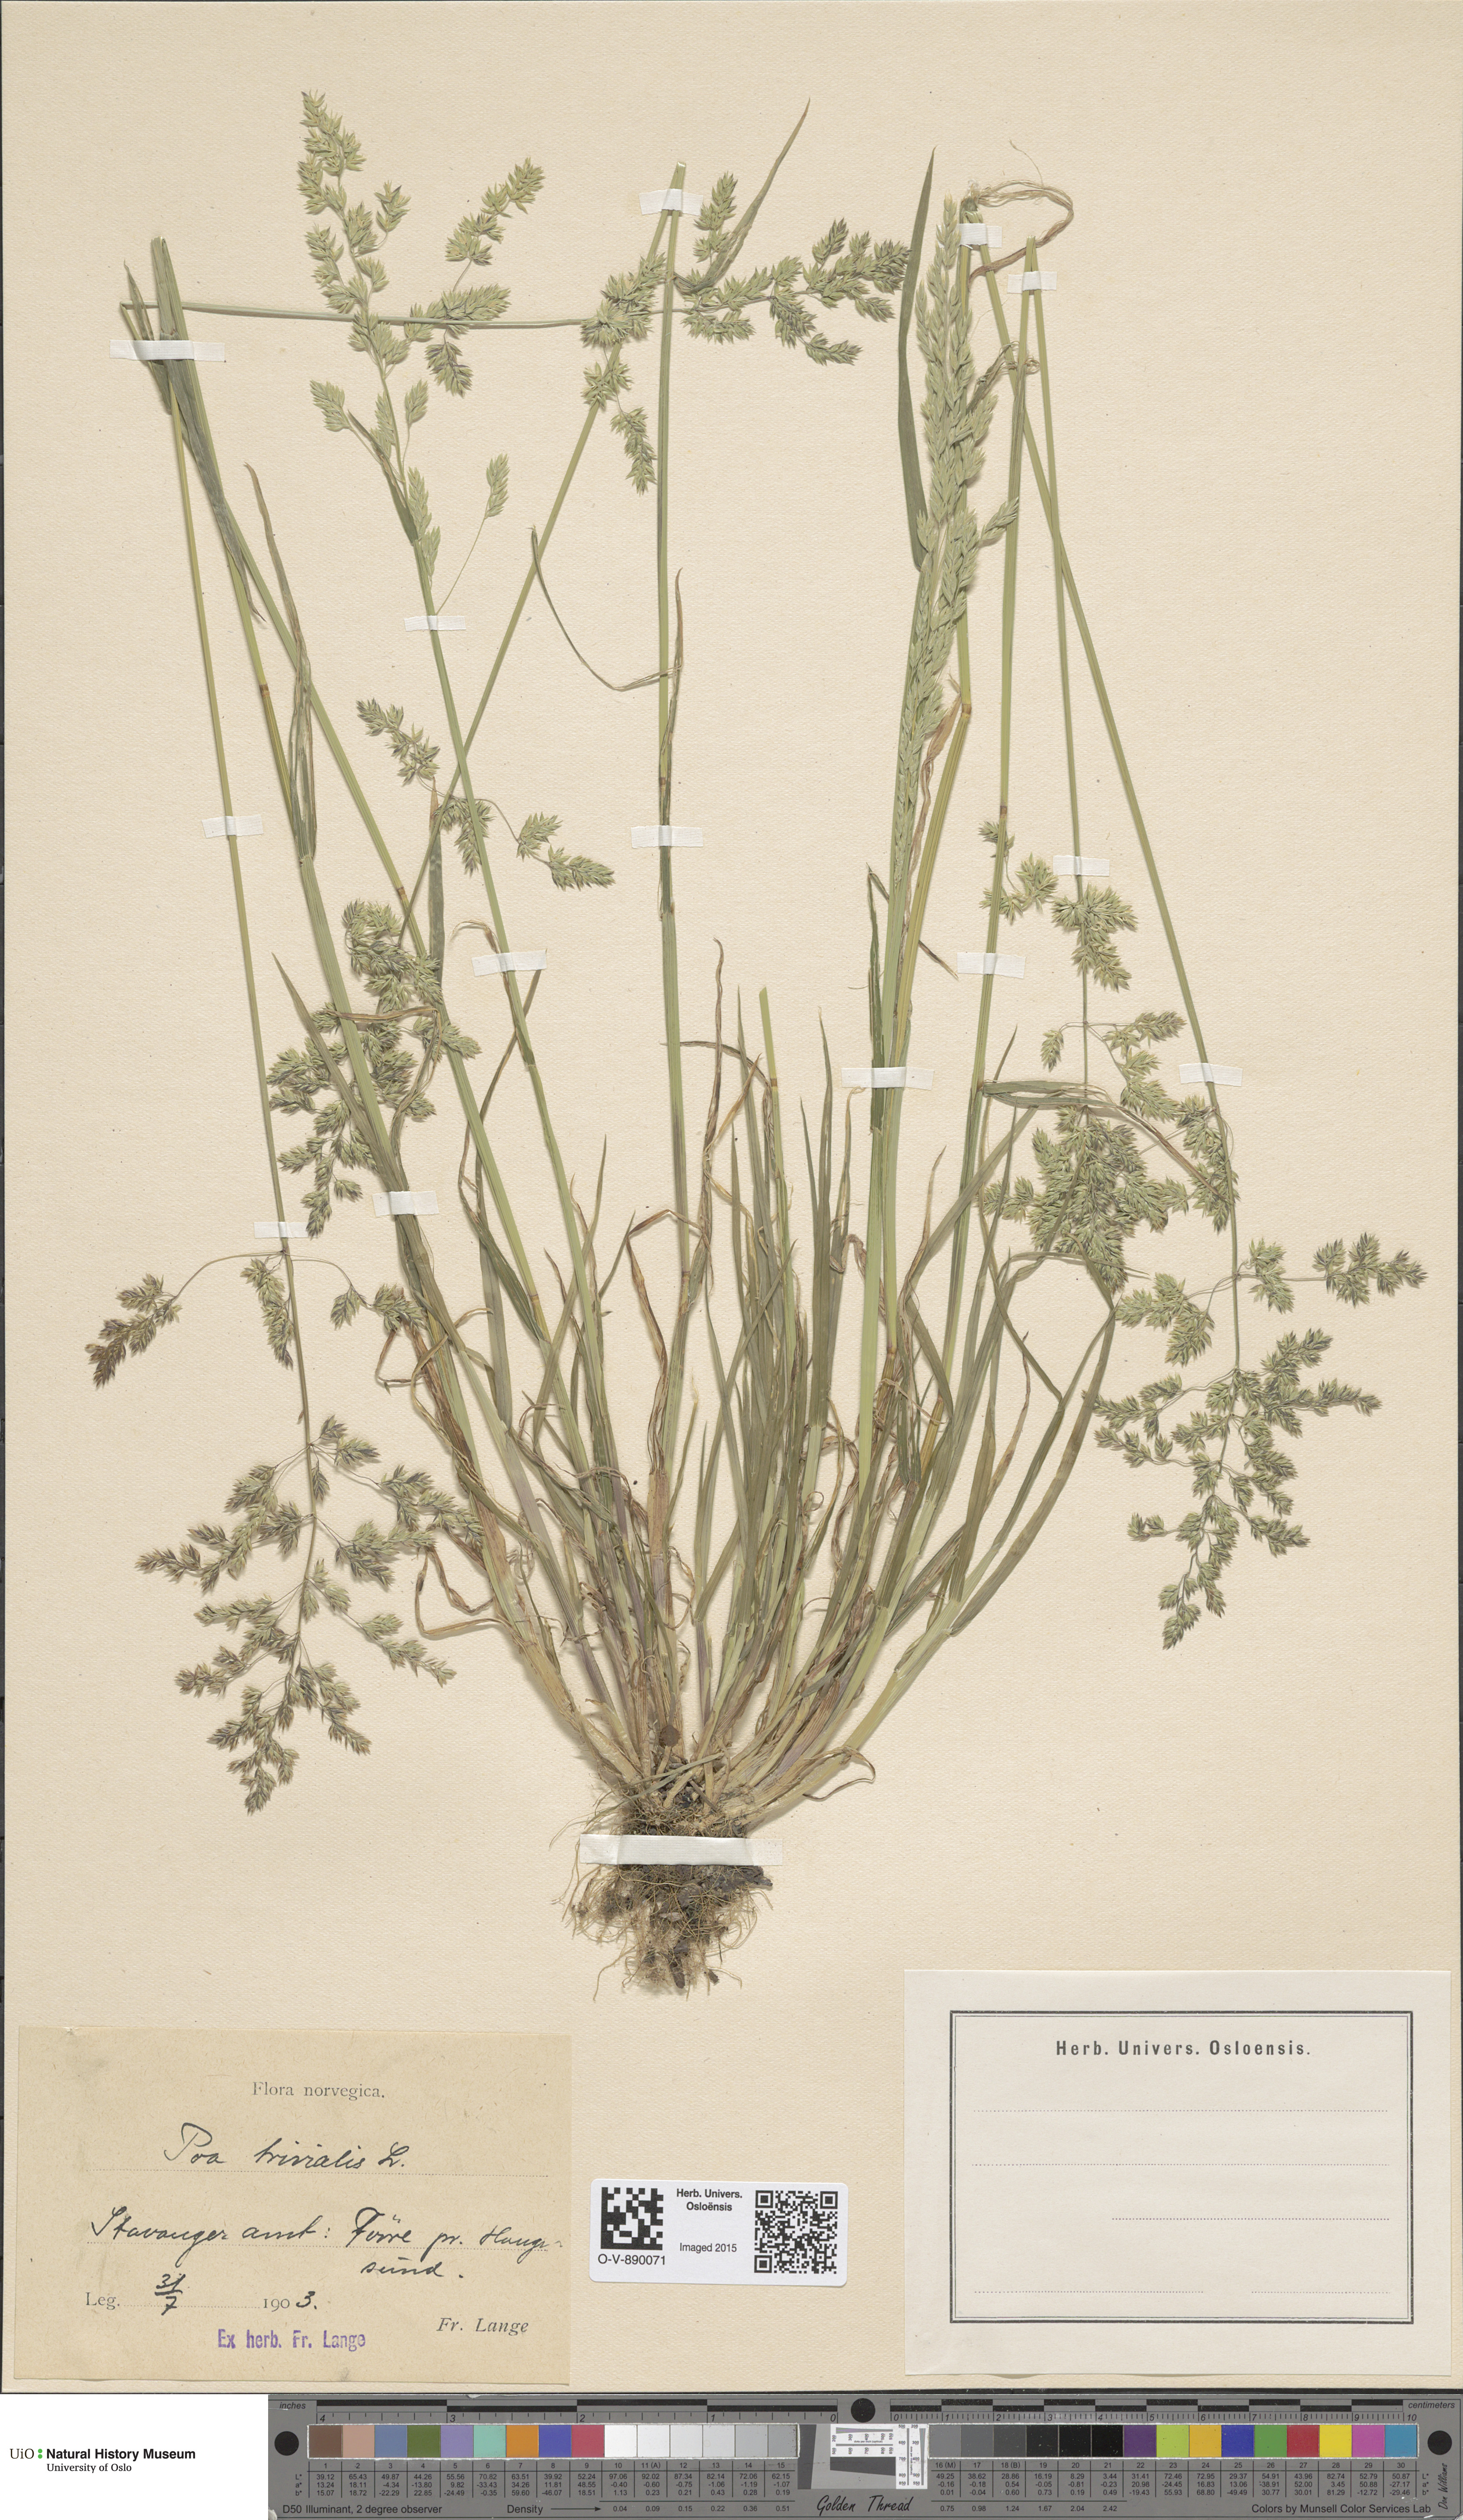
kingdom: Plantae
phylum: Tracheophyta
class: Liliopsida
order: Poales
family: Poaceae
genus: Poa
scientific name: Poa trivialis
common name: Rough bluegrass
